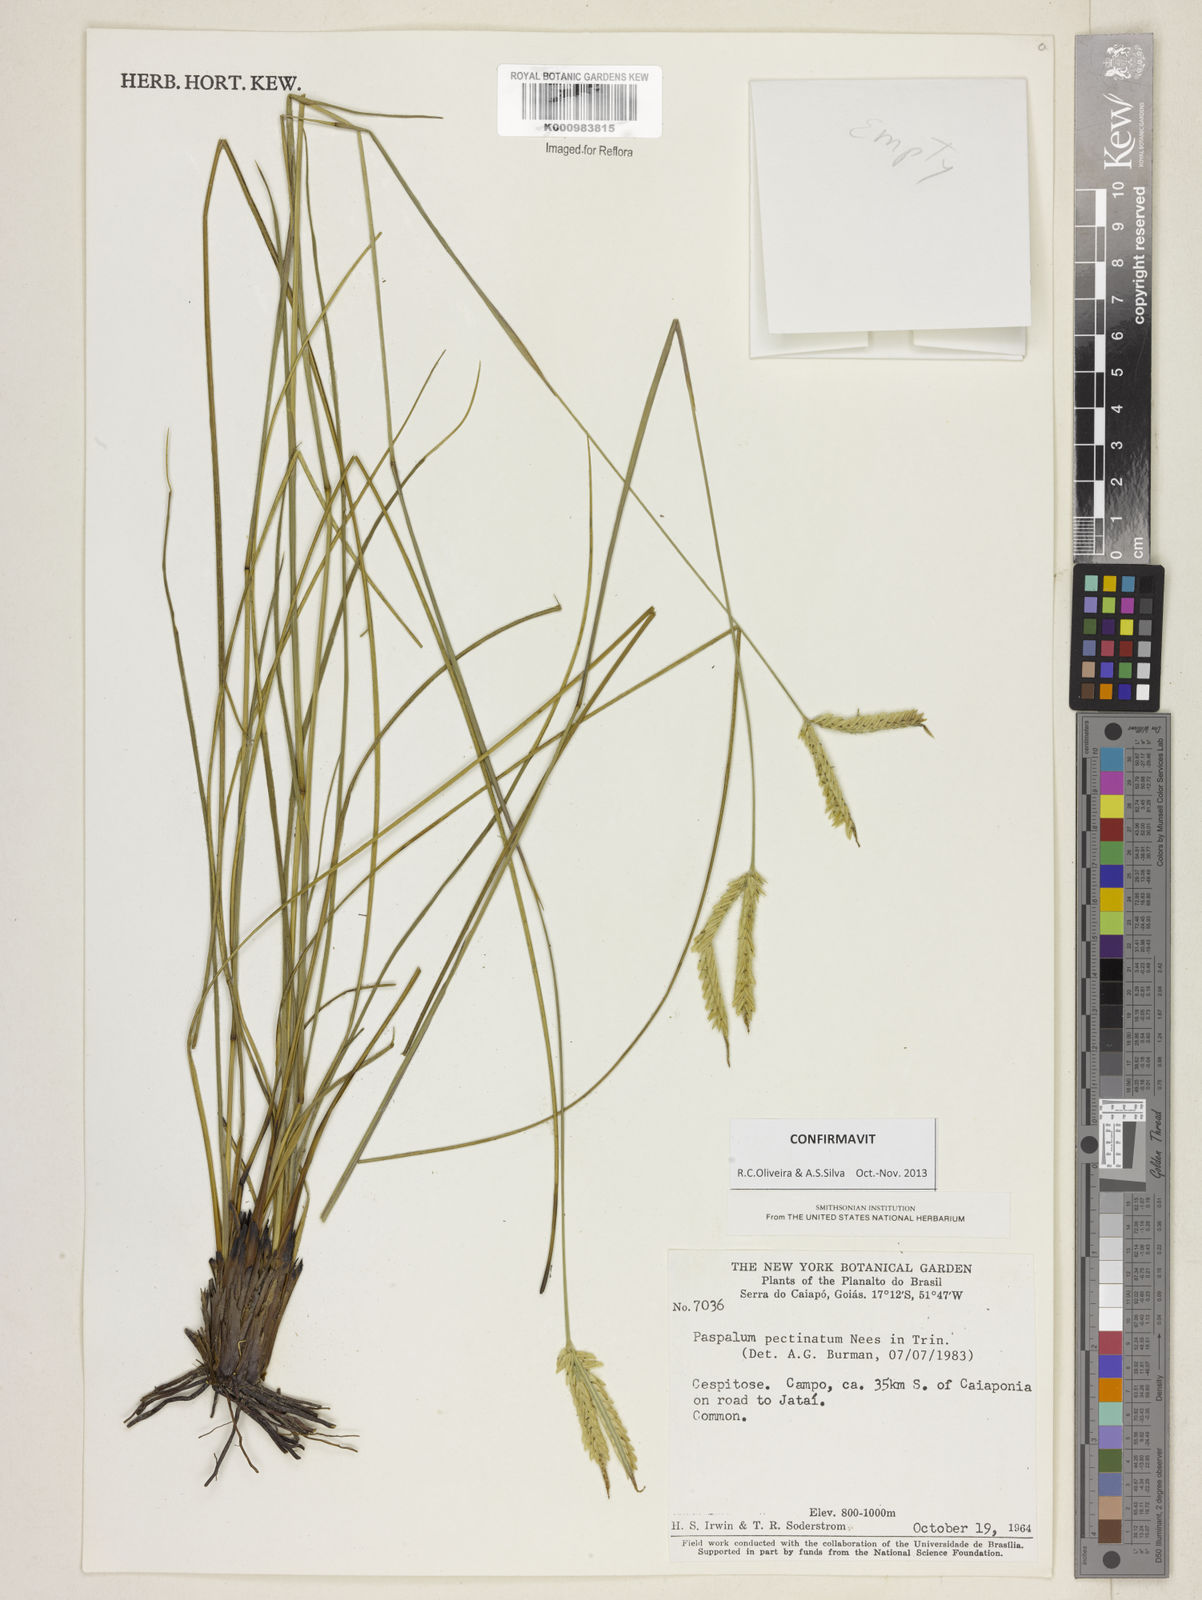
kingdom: Plantae
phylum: Tracheophyta
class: Liliopsida
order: Poales
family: Poaceae
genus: Paspalum
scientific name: Paspalum
